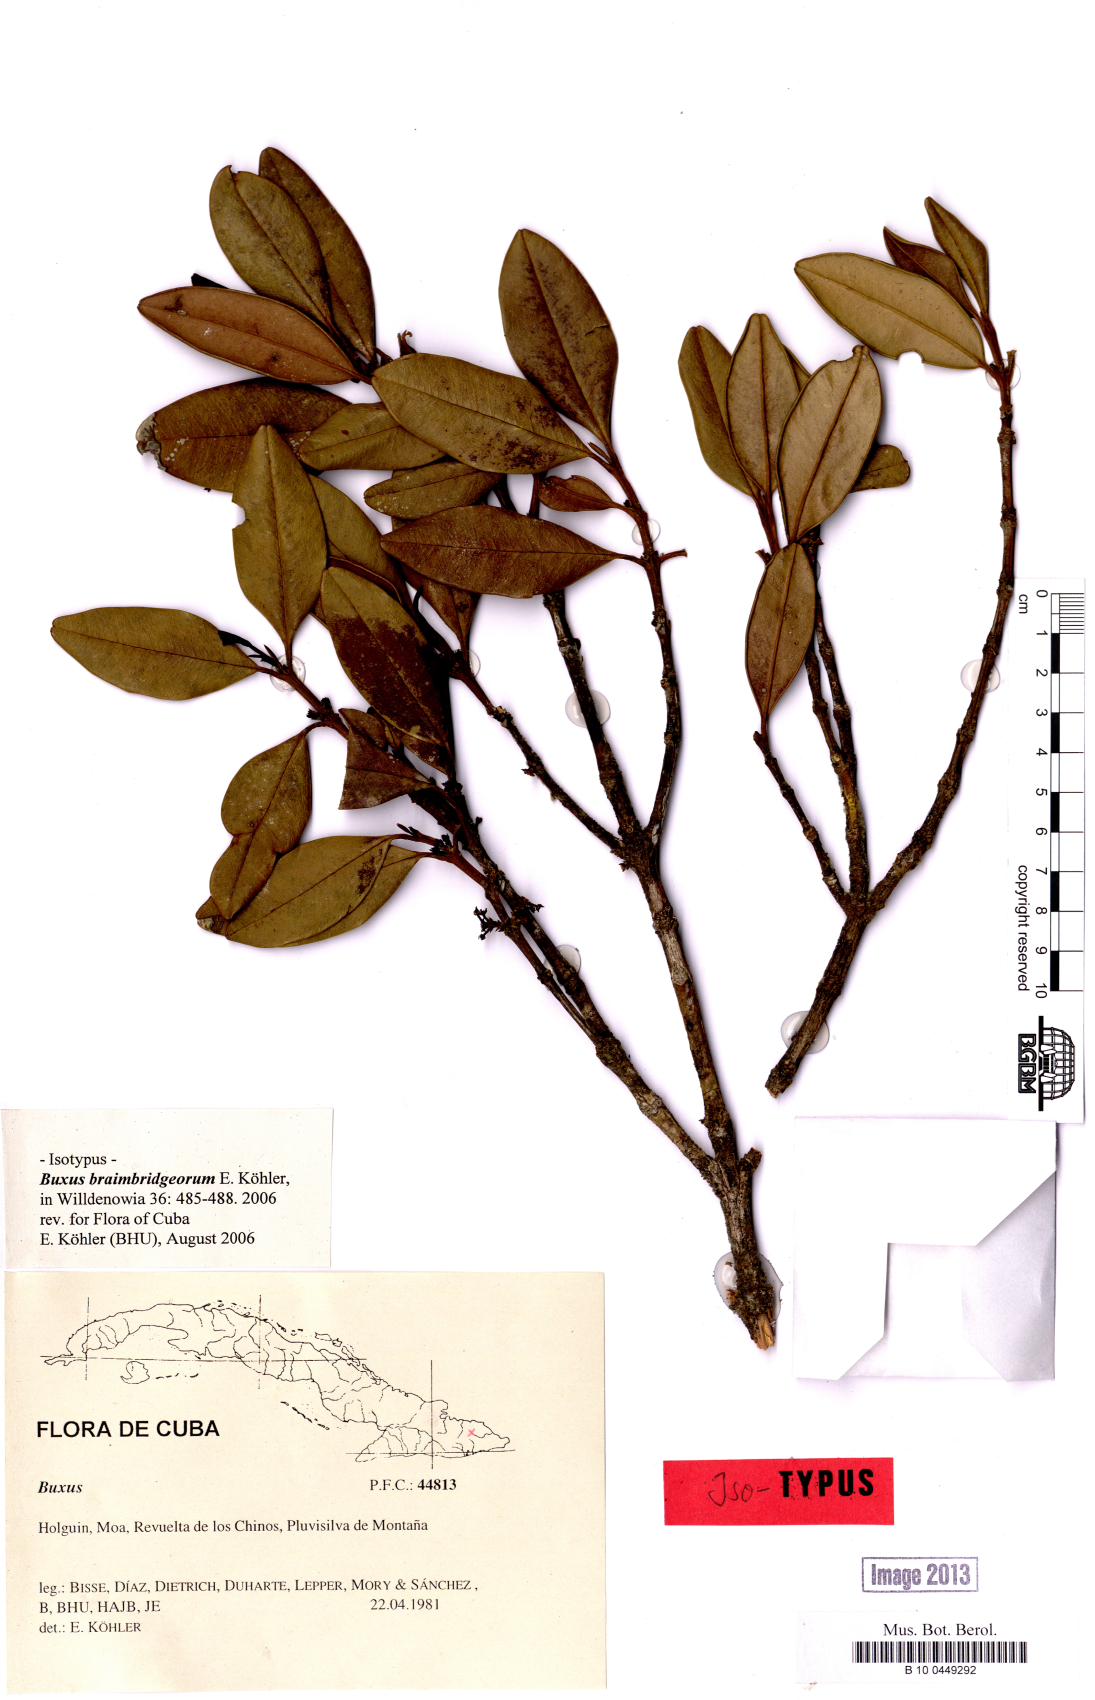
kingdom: Plantae
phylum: Tracheophyta
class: Magnoliopsida
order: Buxales
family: Buxaceae
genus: Buxus
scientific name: Buxus braimbridgeorum
